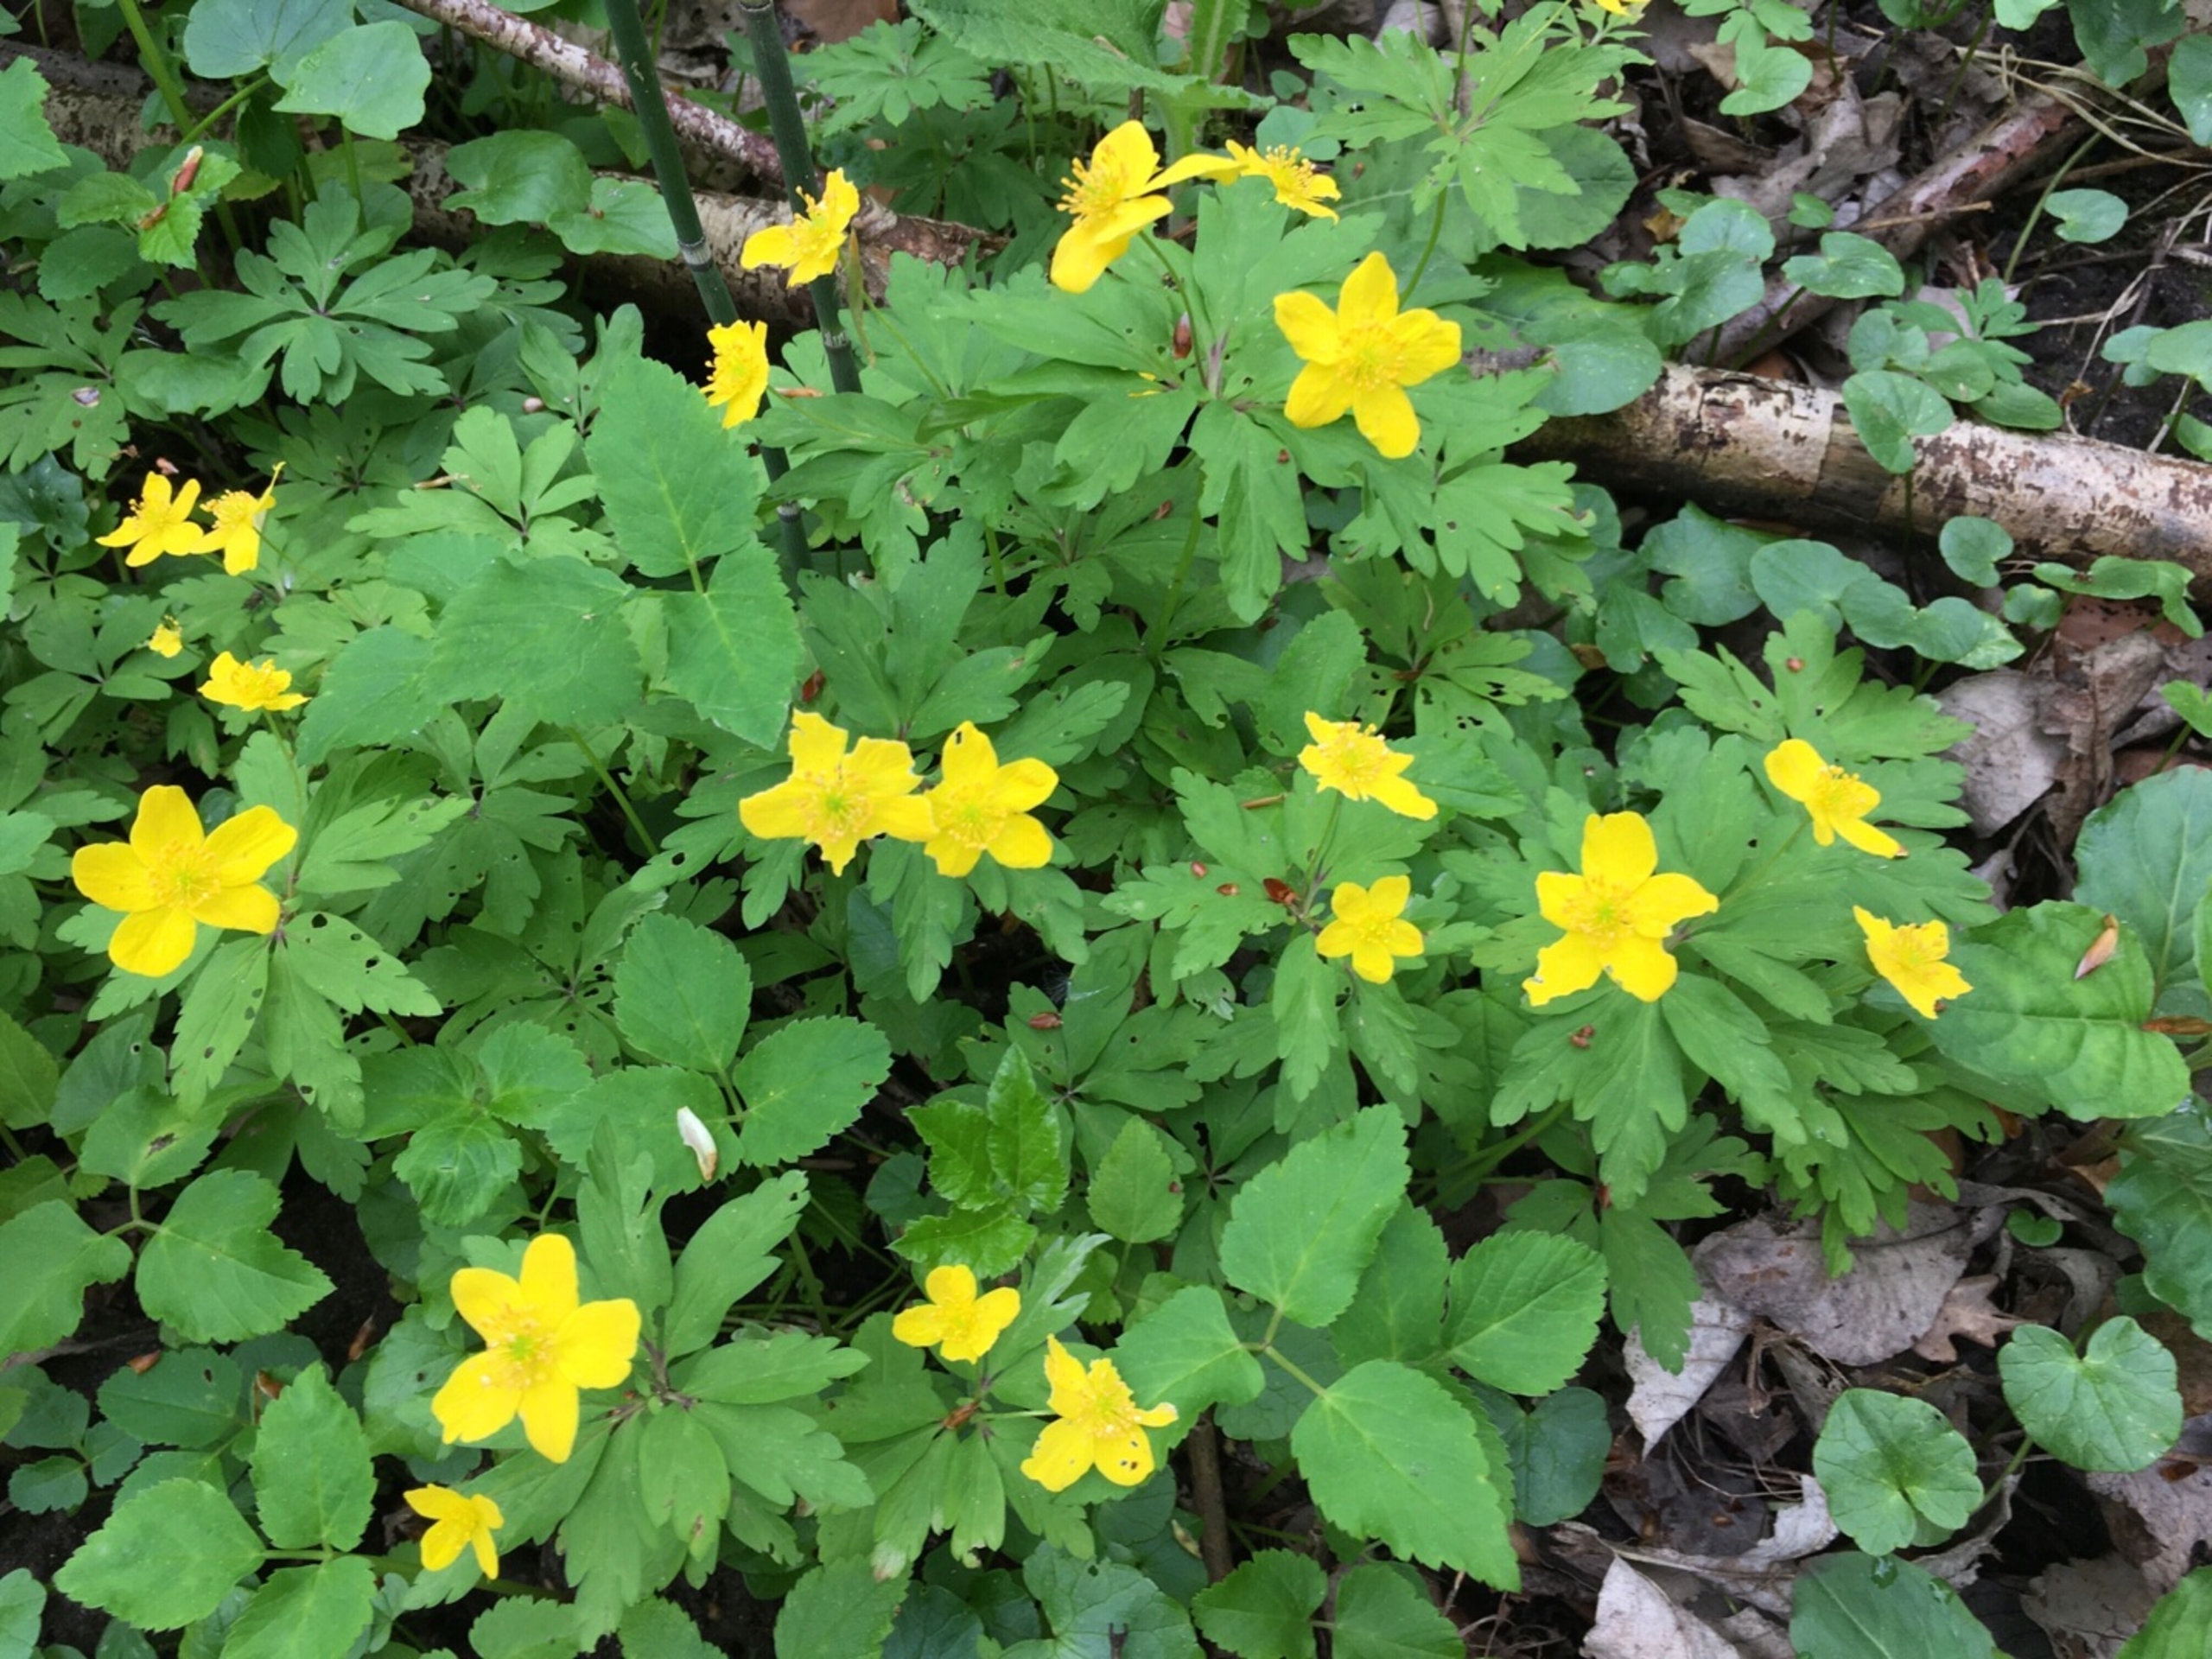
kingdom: Plantae
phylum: Tracheophyta
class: Magnoliopsida
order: Ranunculales
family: Ranunculaceae
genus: Anemone
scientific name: Anemone ranunculoides
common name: Gul anemone
